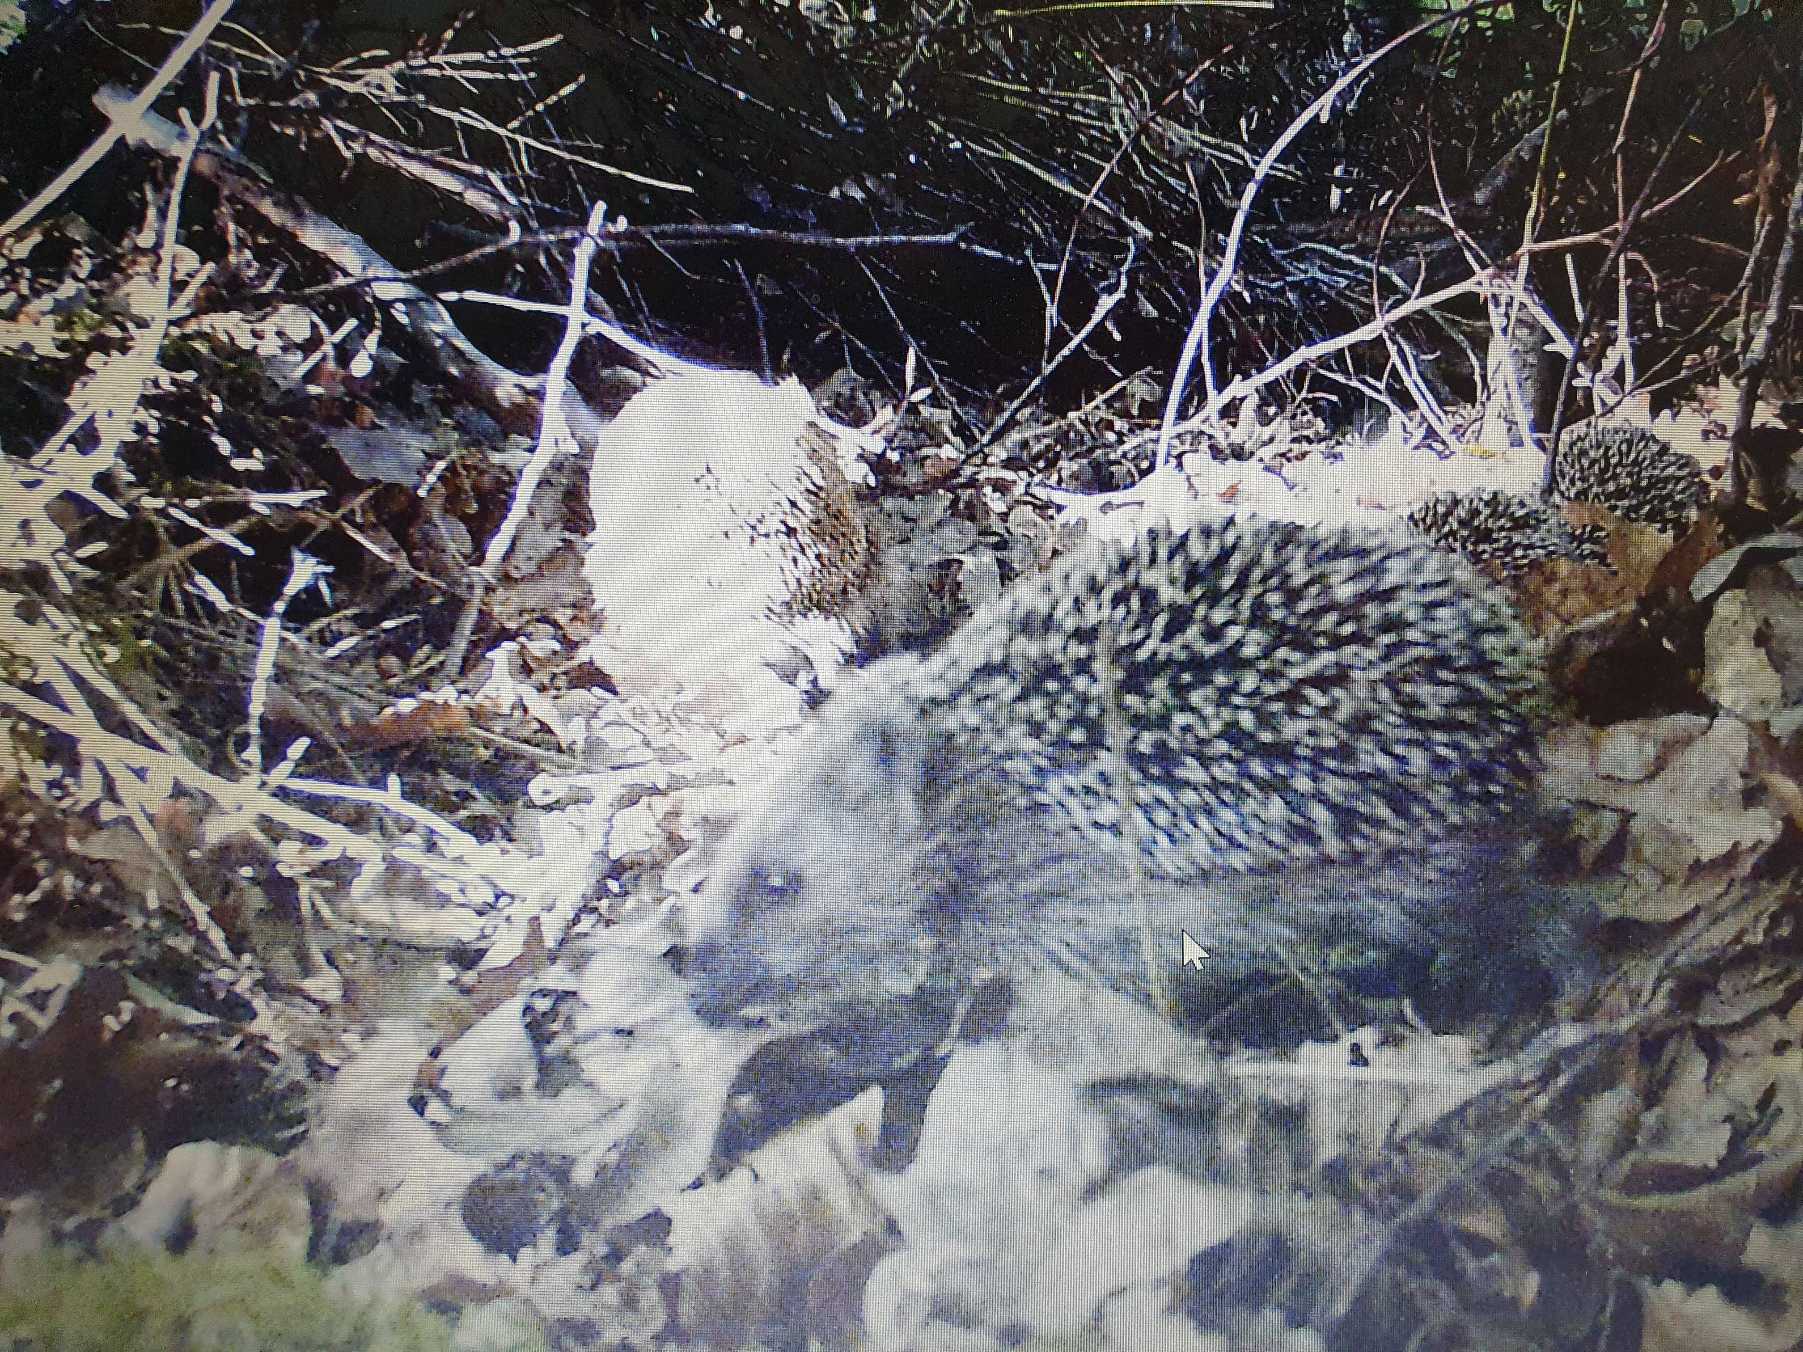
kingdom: Animalia
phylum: Chordata
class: Mammalia
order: Erinaceomorpha
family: Erinaceidae
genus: Erinaceus
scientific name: Erinaceus europaeus
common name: Pindsvin
